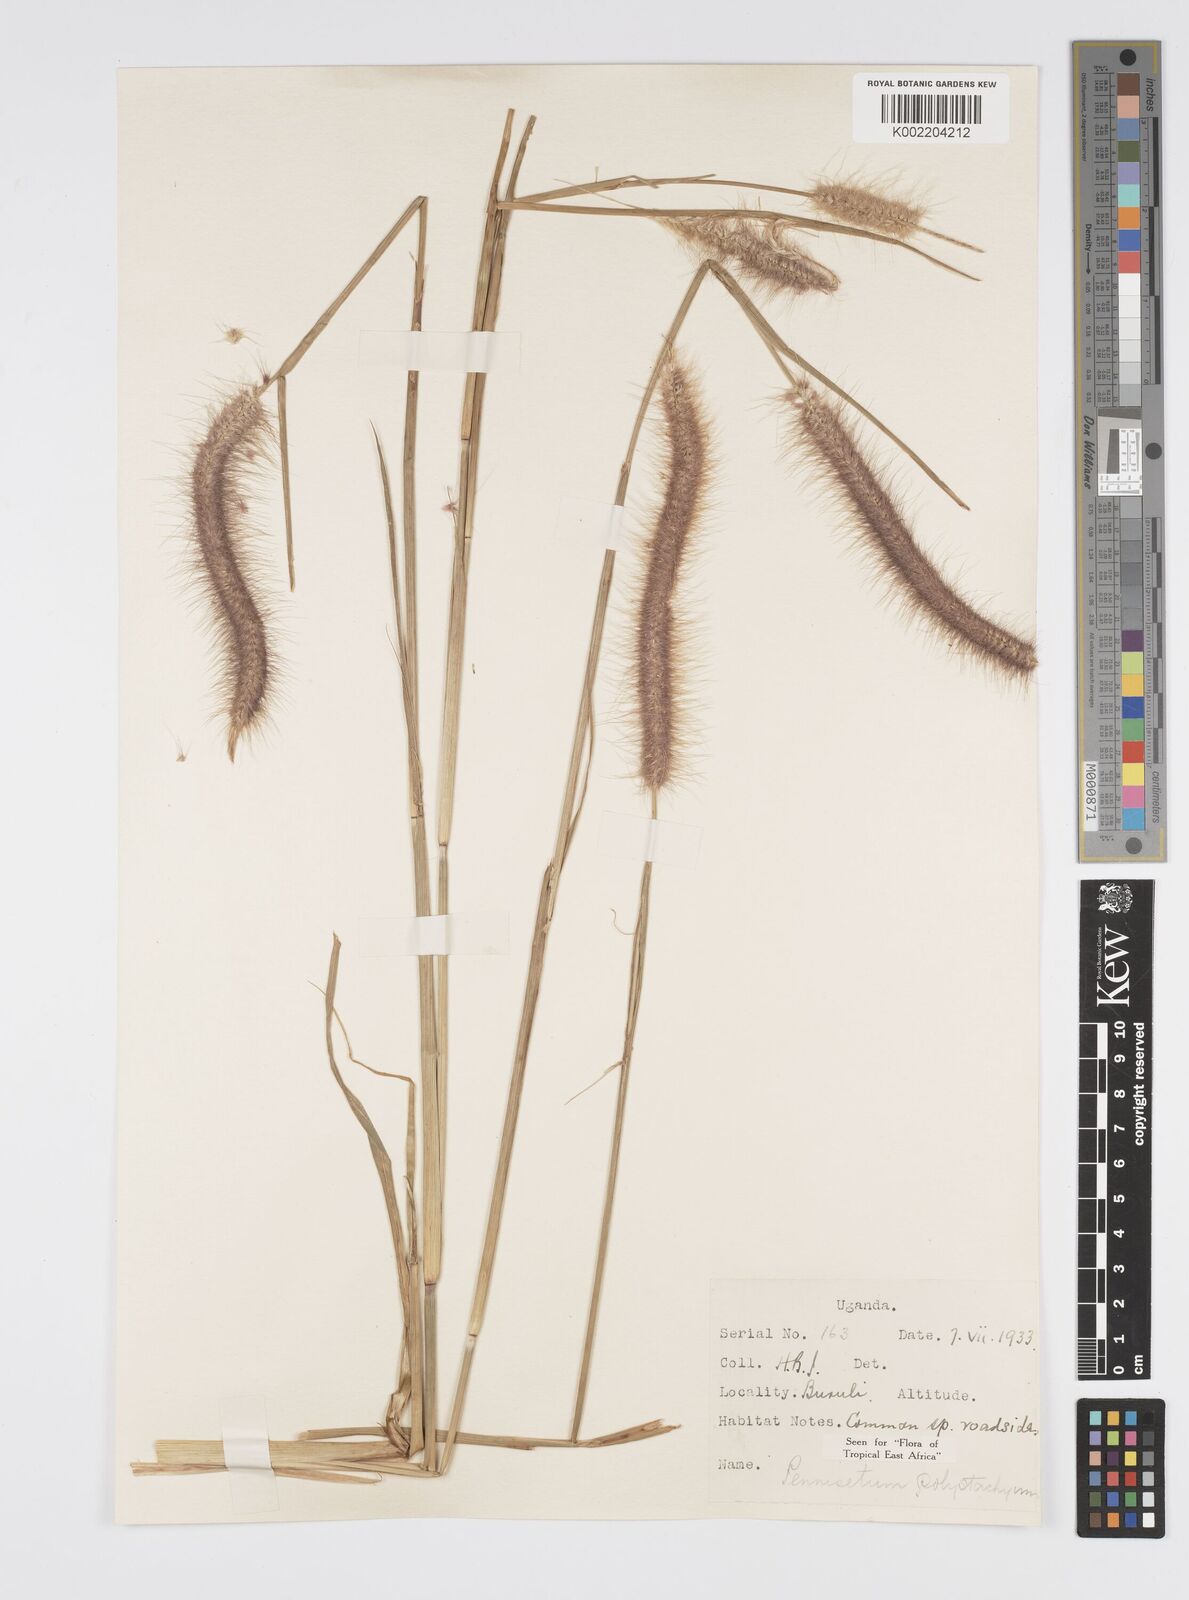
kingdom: Plantae
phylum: Tracheophyta
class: Liliopsida
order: Poales
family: Poaceae
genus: Setaria
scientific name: Setaria parviflora
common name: Knotroot bristle-grass
